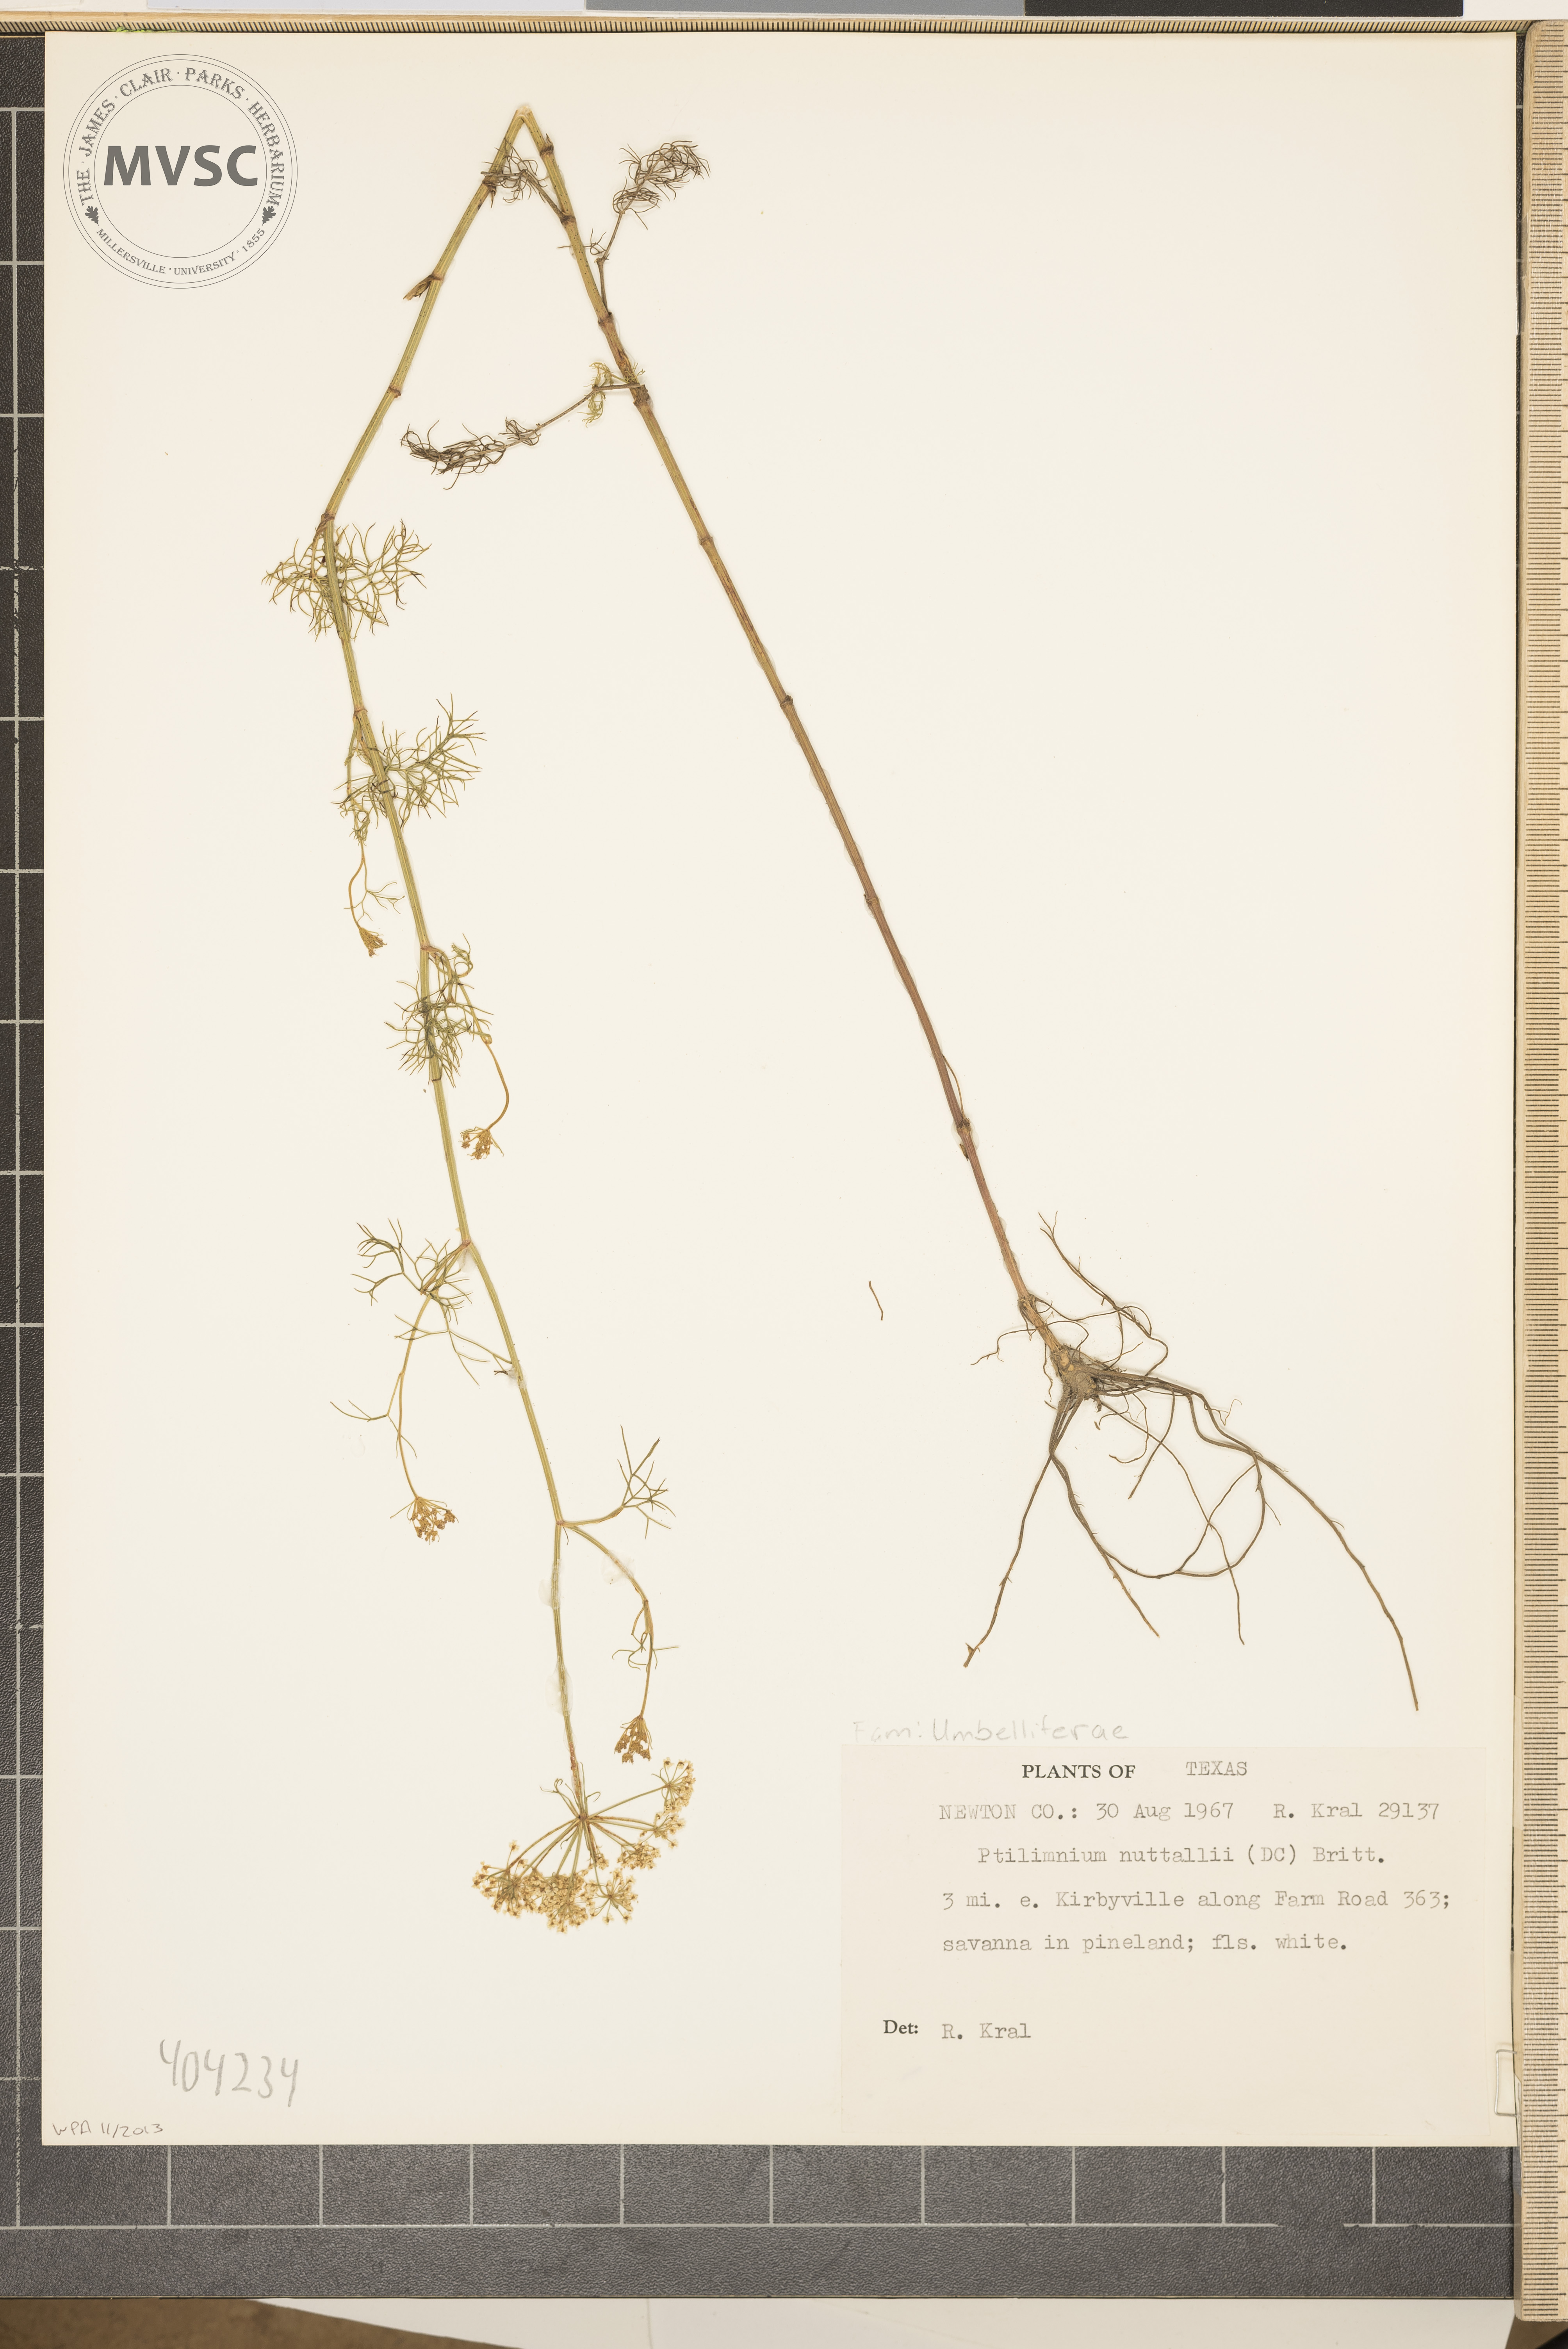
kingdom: Plantae
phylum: Tracheophyta
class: Magnoliopsida
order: Apiales
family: Apiaceae
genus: Ptilimnium
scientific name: Ptilimnium nuttallii
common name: Ozark bishop's-weed
